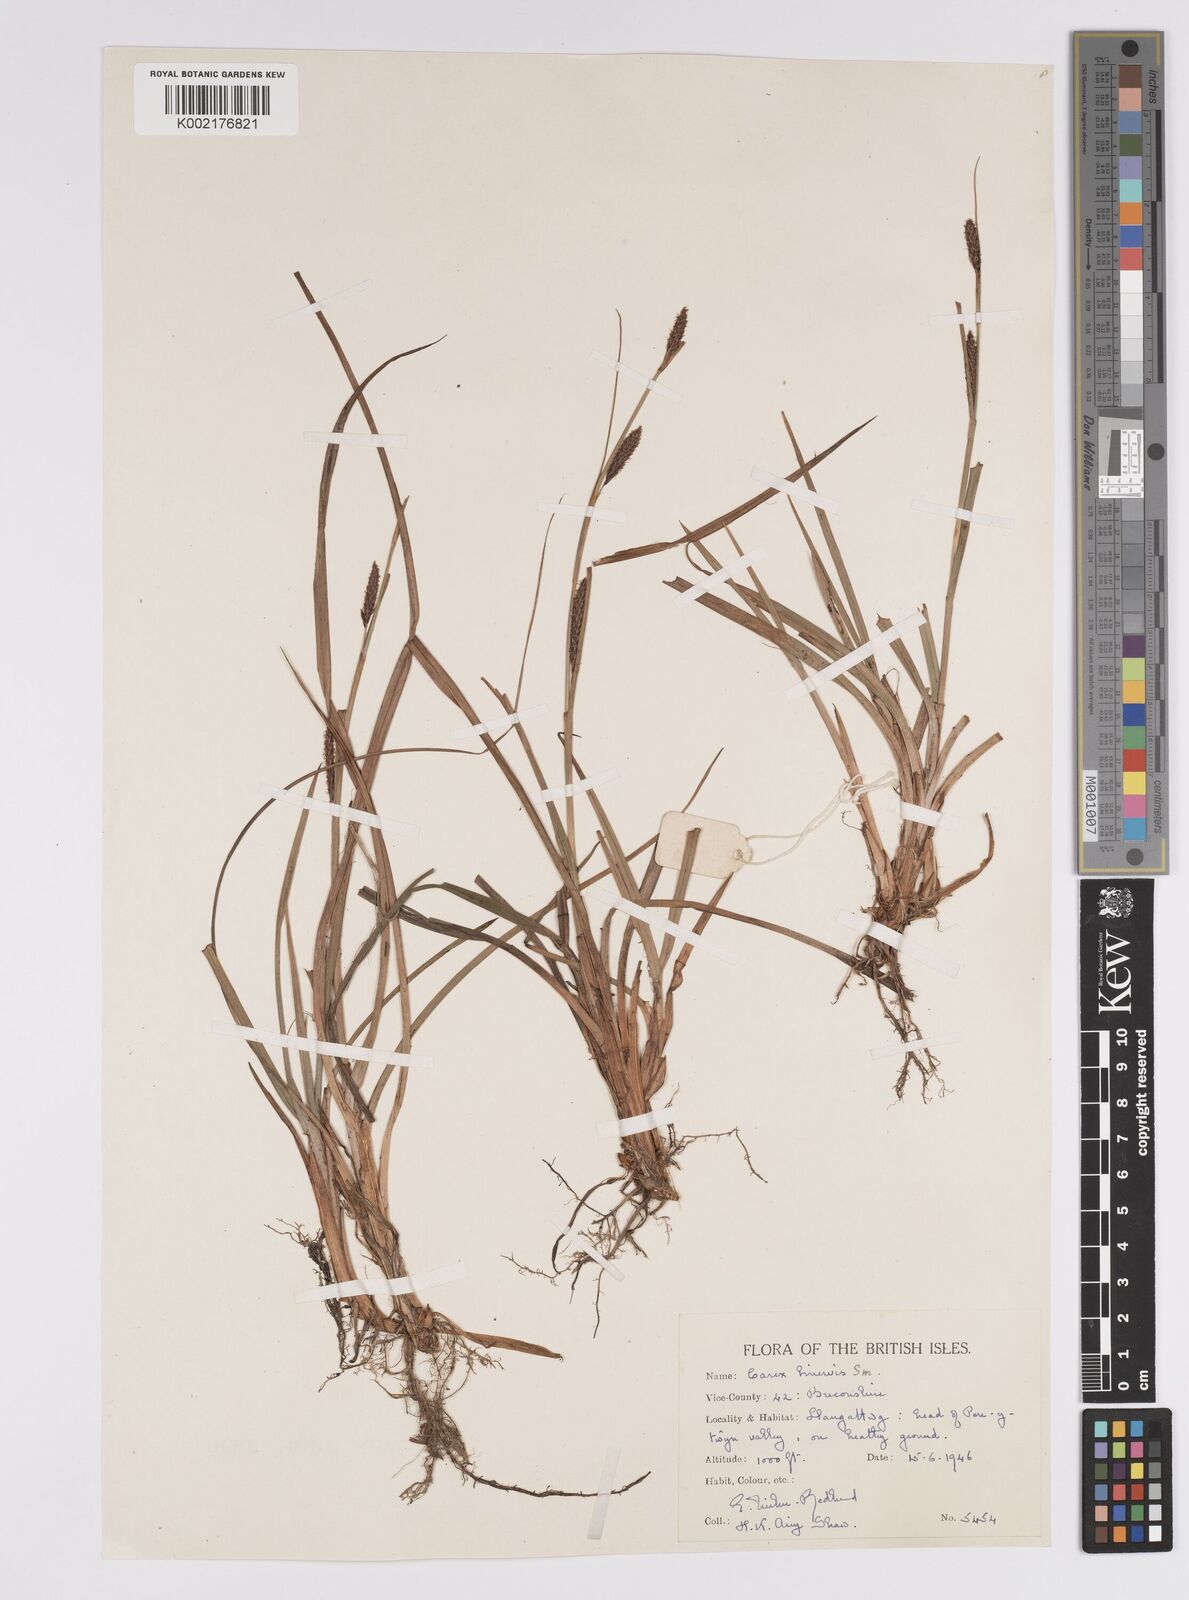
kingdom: Plantae
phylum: Tracheophyta
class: Liliopsida
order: Poales
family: Cyperaceae
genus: Carex
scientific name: Carex binervis
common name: Green-ribbed sedge
